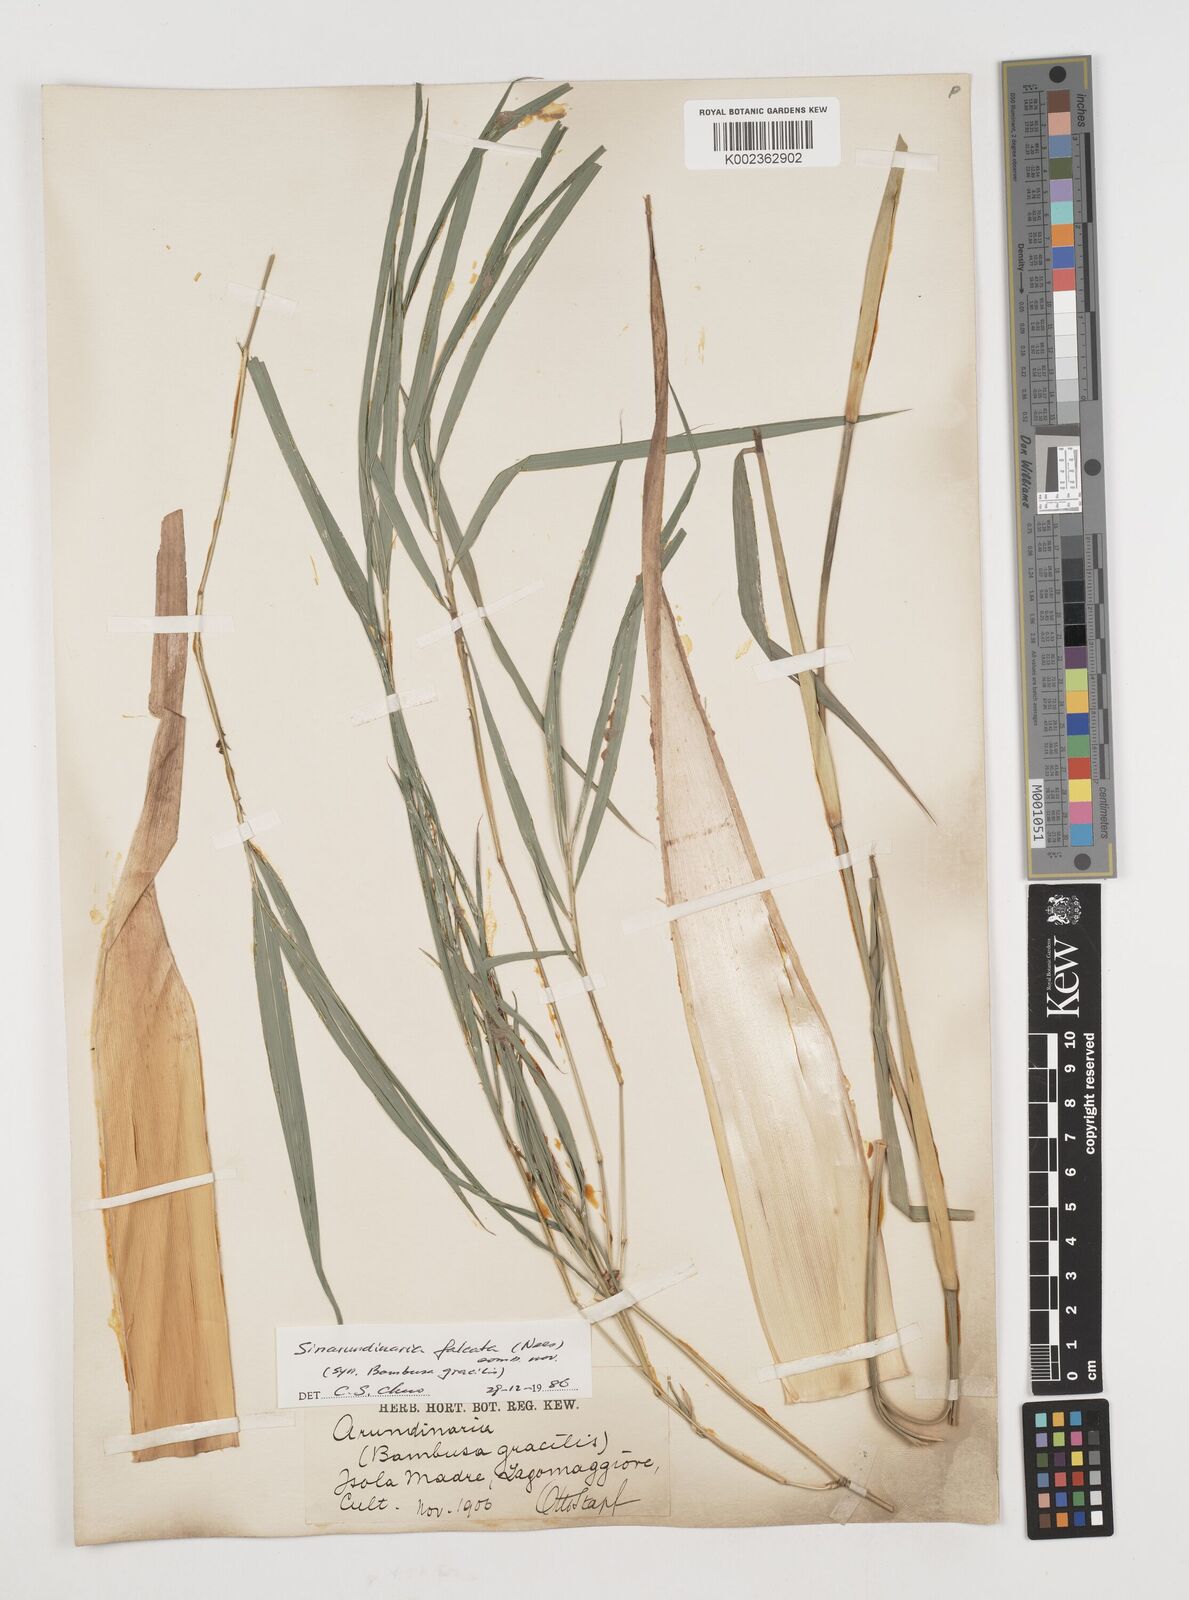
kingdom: Plantae
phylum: Tracheophyta
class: Liliopsida
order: Poales
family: Poaceae
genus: Drepanostachyum
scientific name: Drepanostachyum
